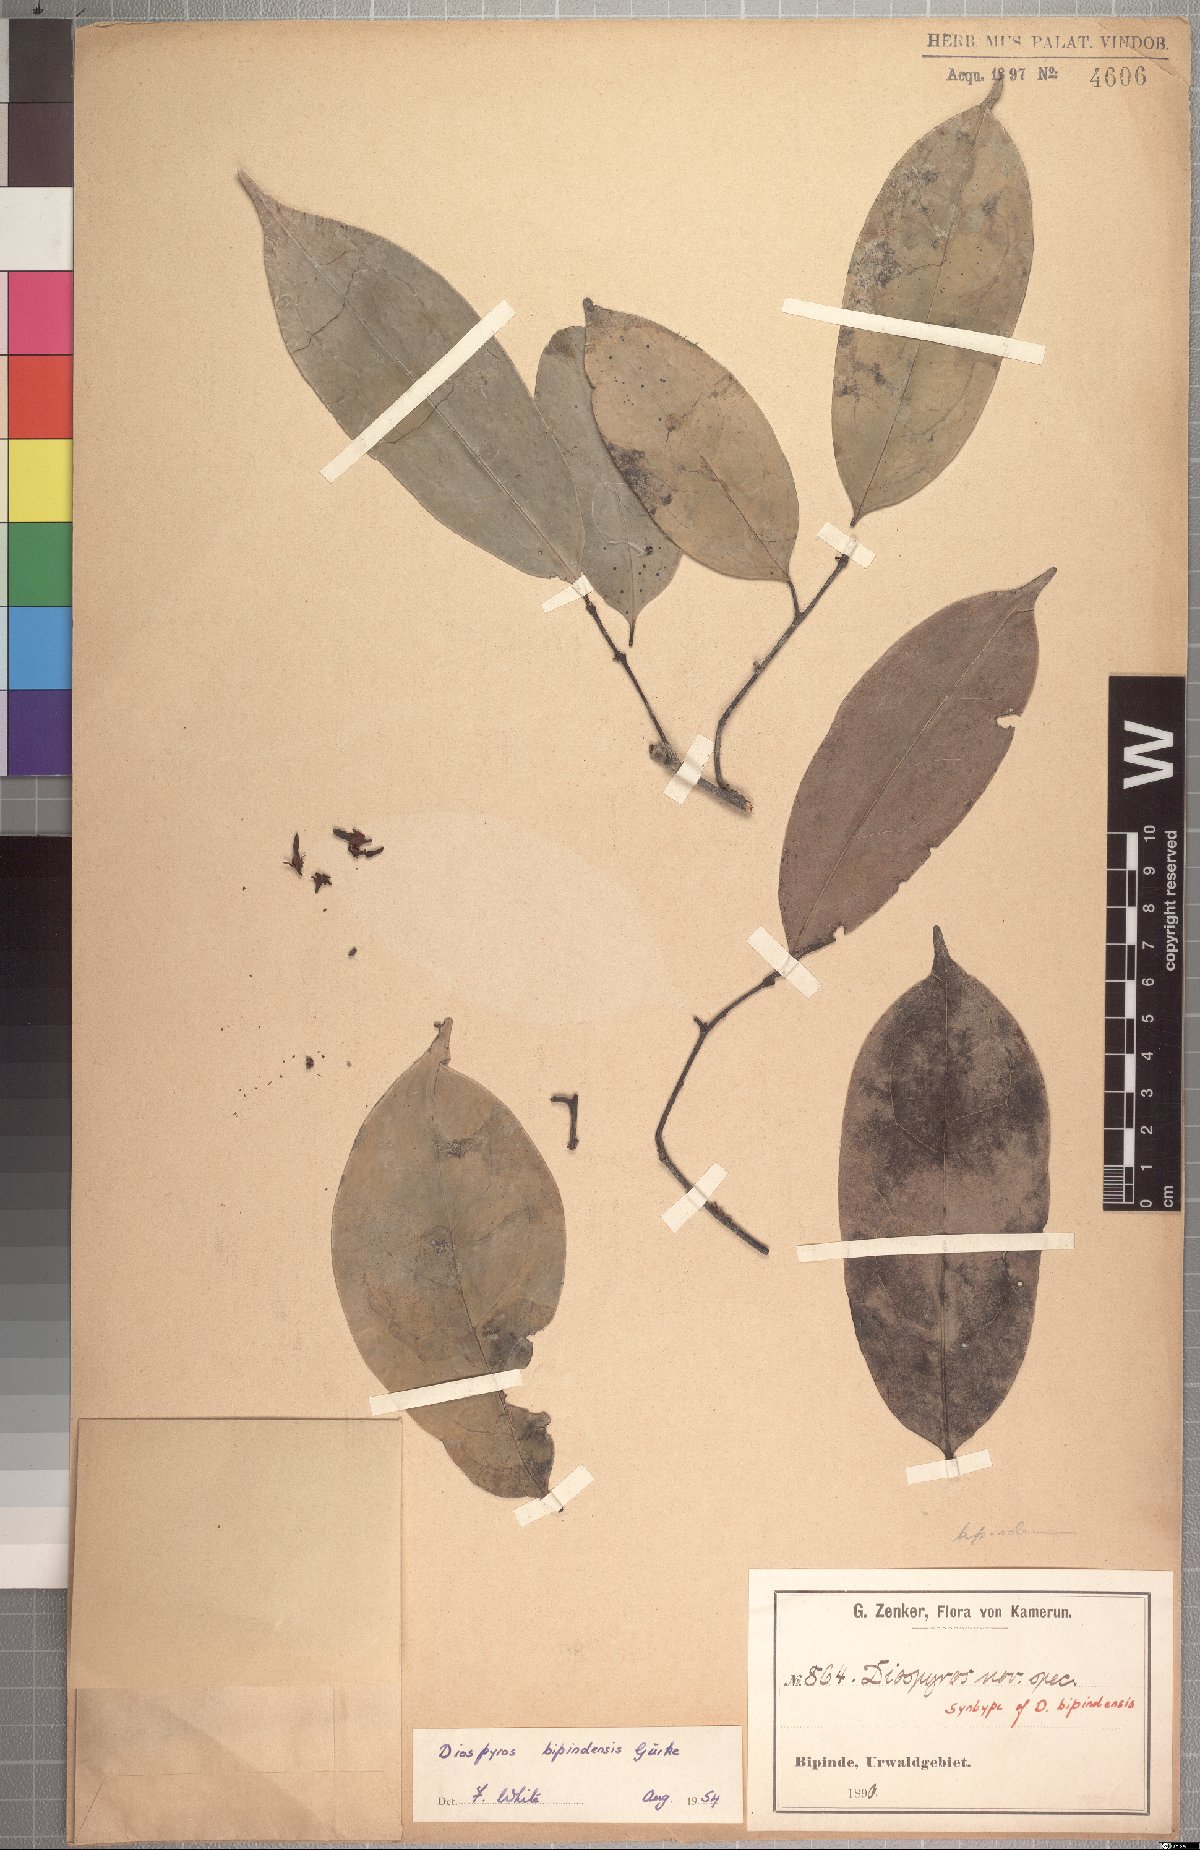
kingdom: Plantae
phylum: Tracheophyta
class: Magnoliopsida
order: Ericales
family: Ebenaceae
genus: Diospyros
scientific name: Diospyros bipindensis
